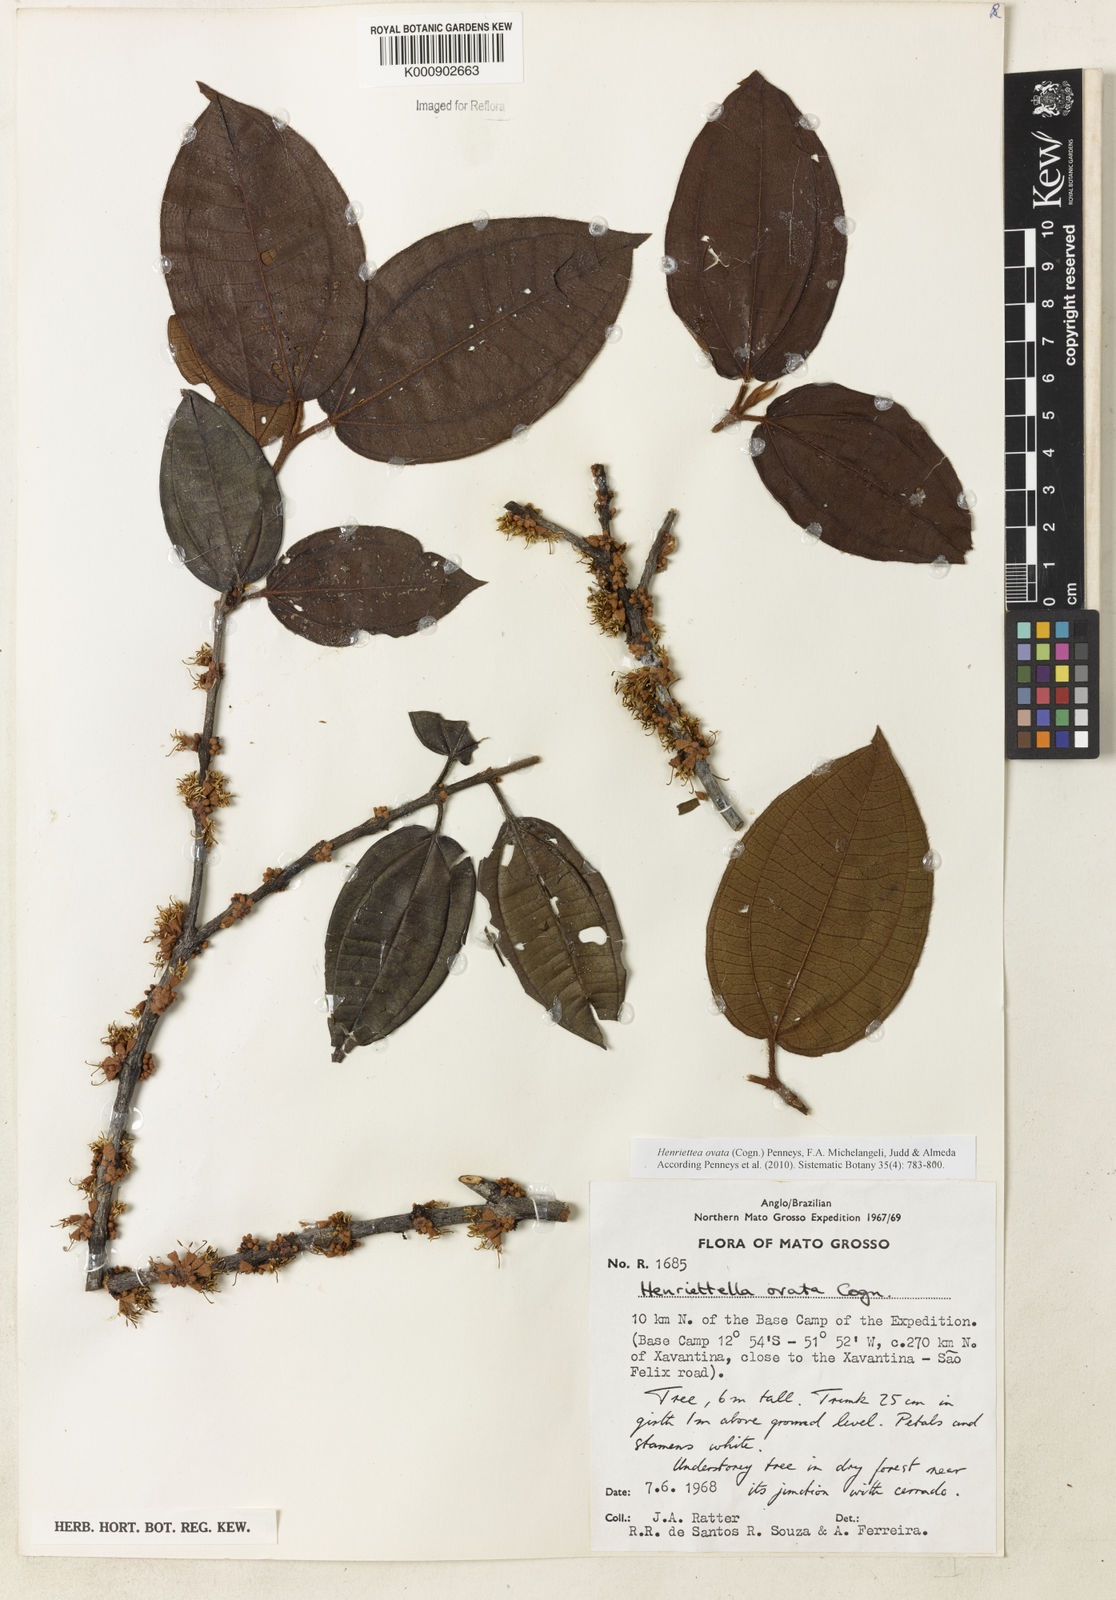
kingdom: Plantae
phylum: Tracheophyta
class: Magnoliopsida
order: Myrtales
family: Melastomataceae
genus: Henriettea
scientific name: Henriettea ovata
